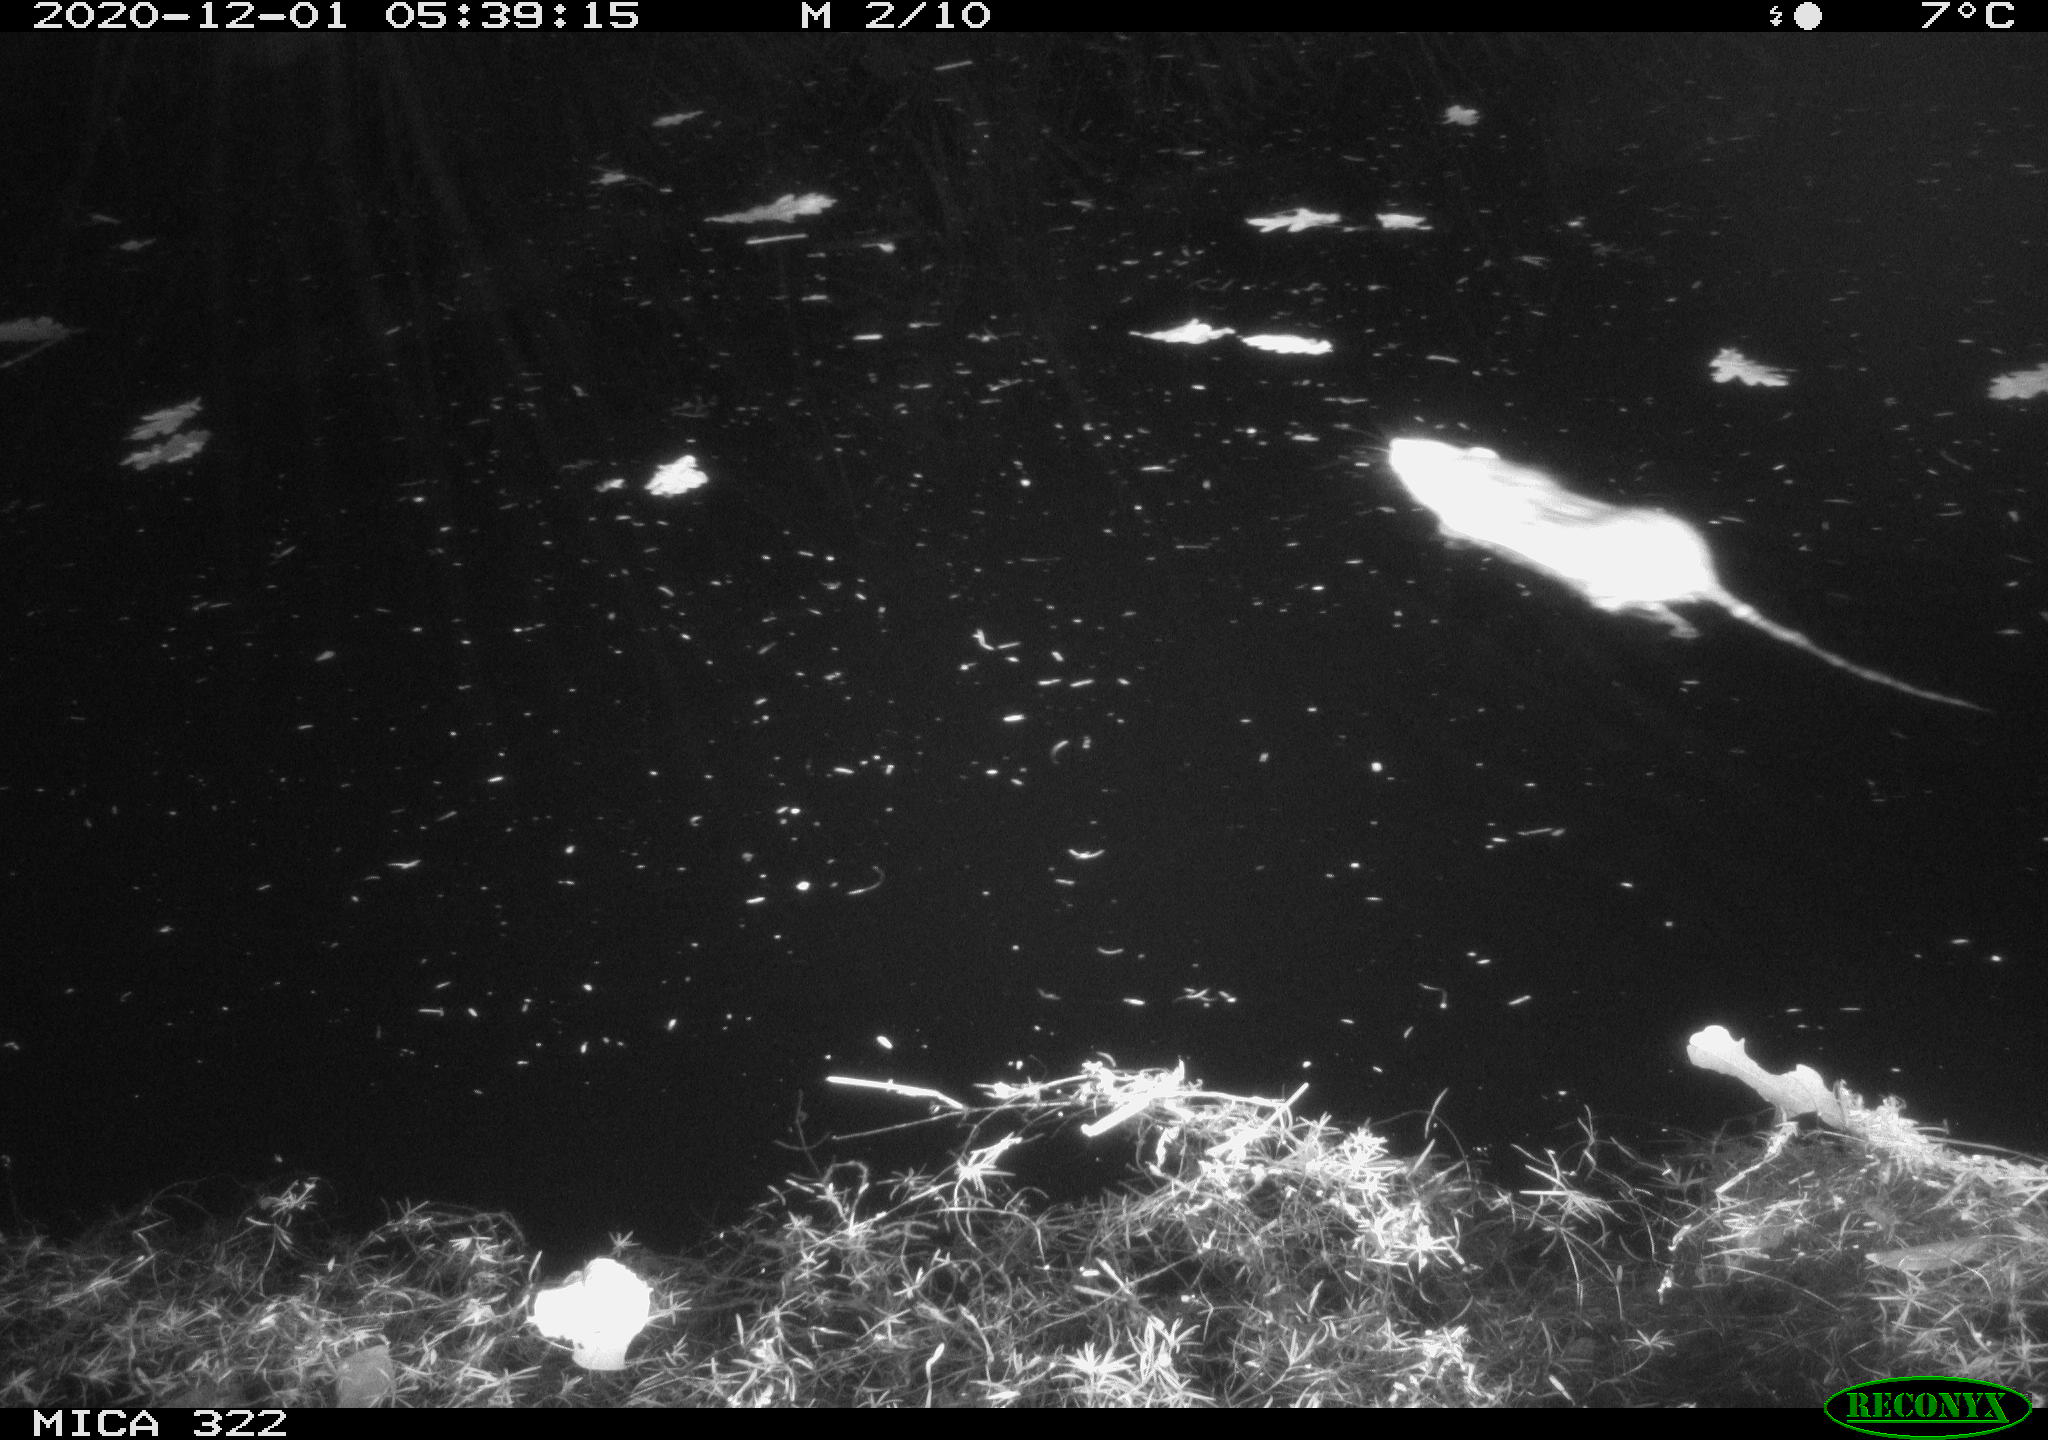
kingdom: Animalia
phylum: Chordata
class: Mammalia
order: Rodentia
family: Muridae
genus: Rattus
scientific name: Rattus norvegicus
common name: Brown rat
